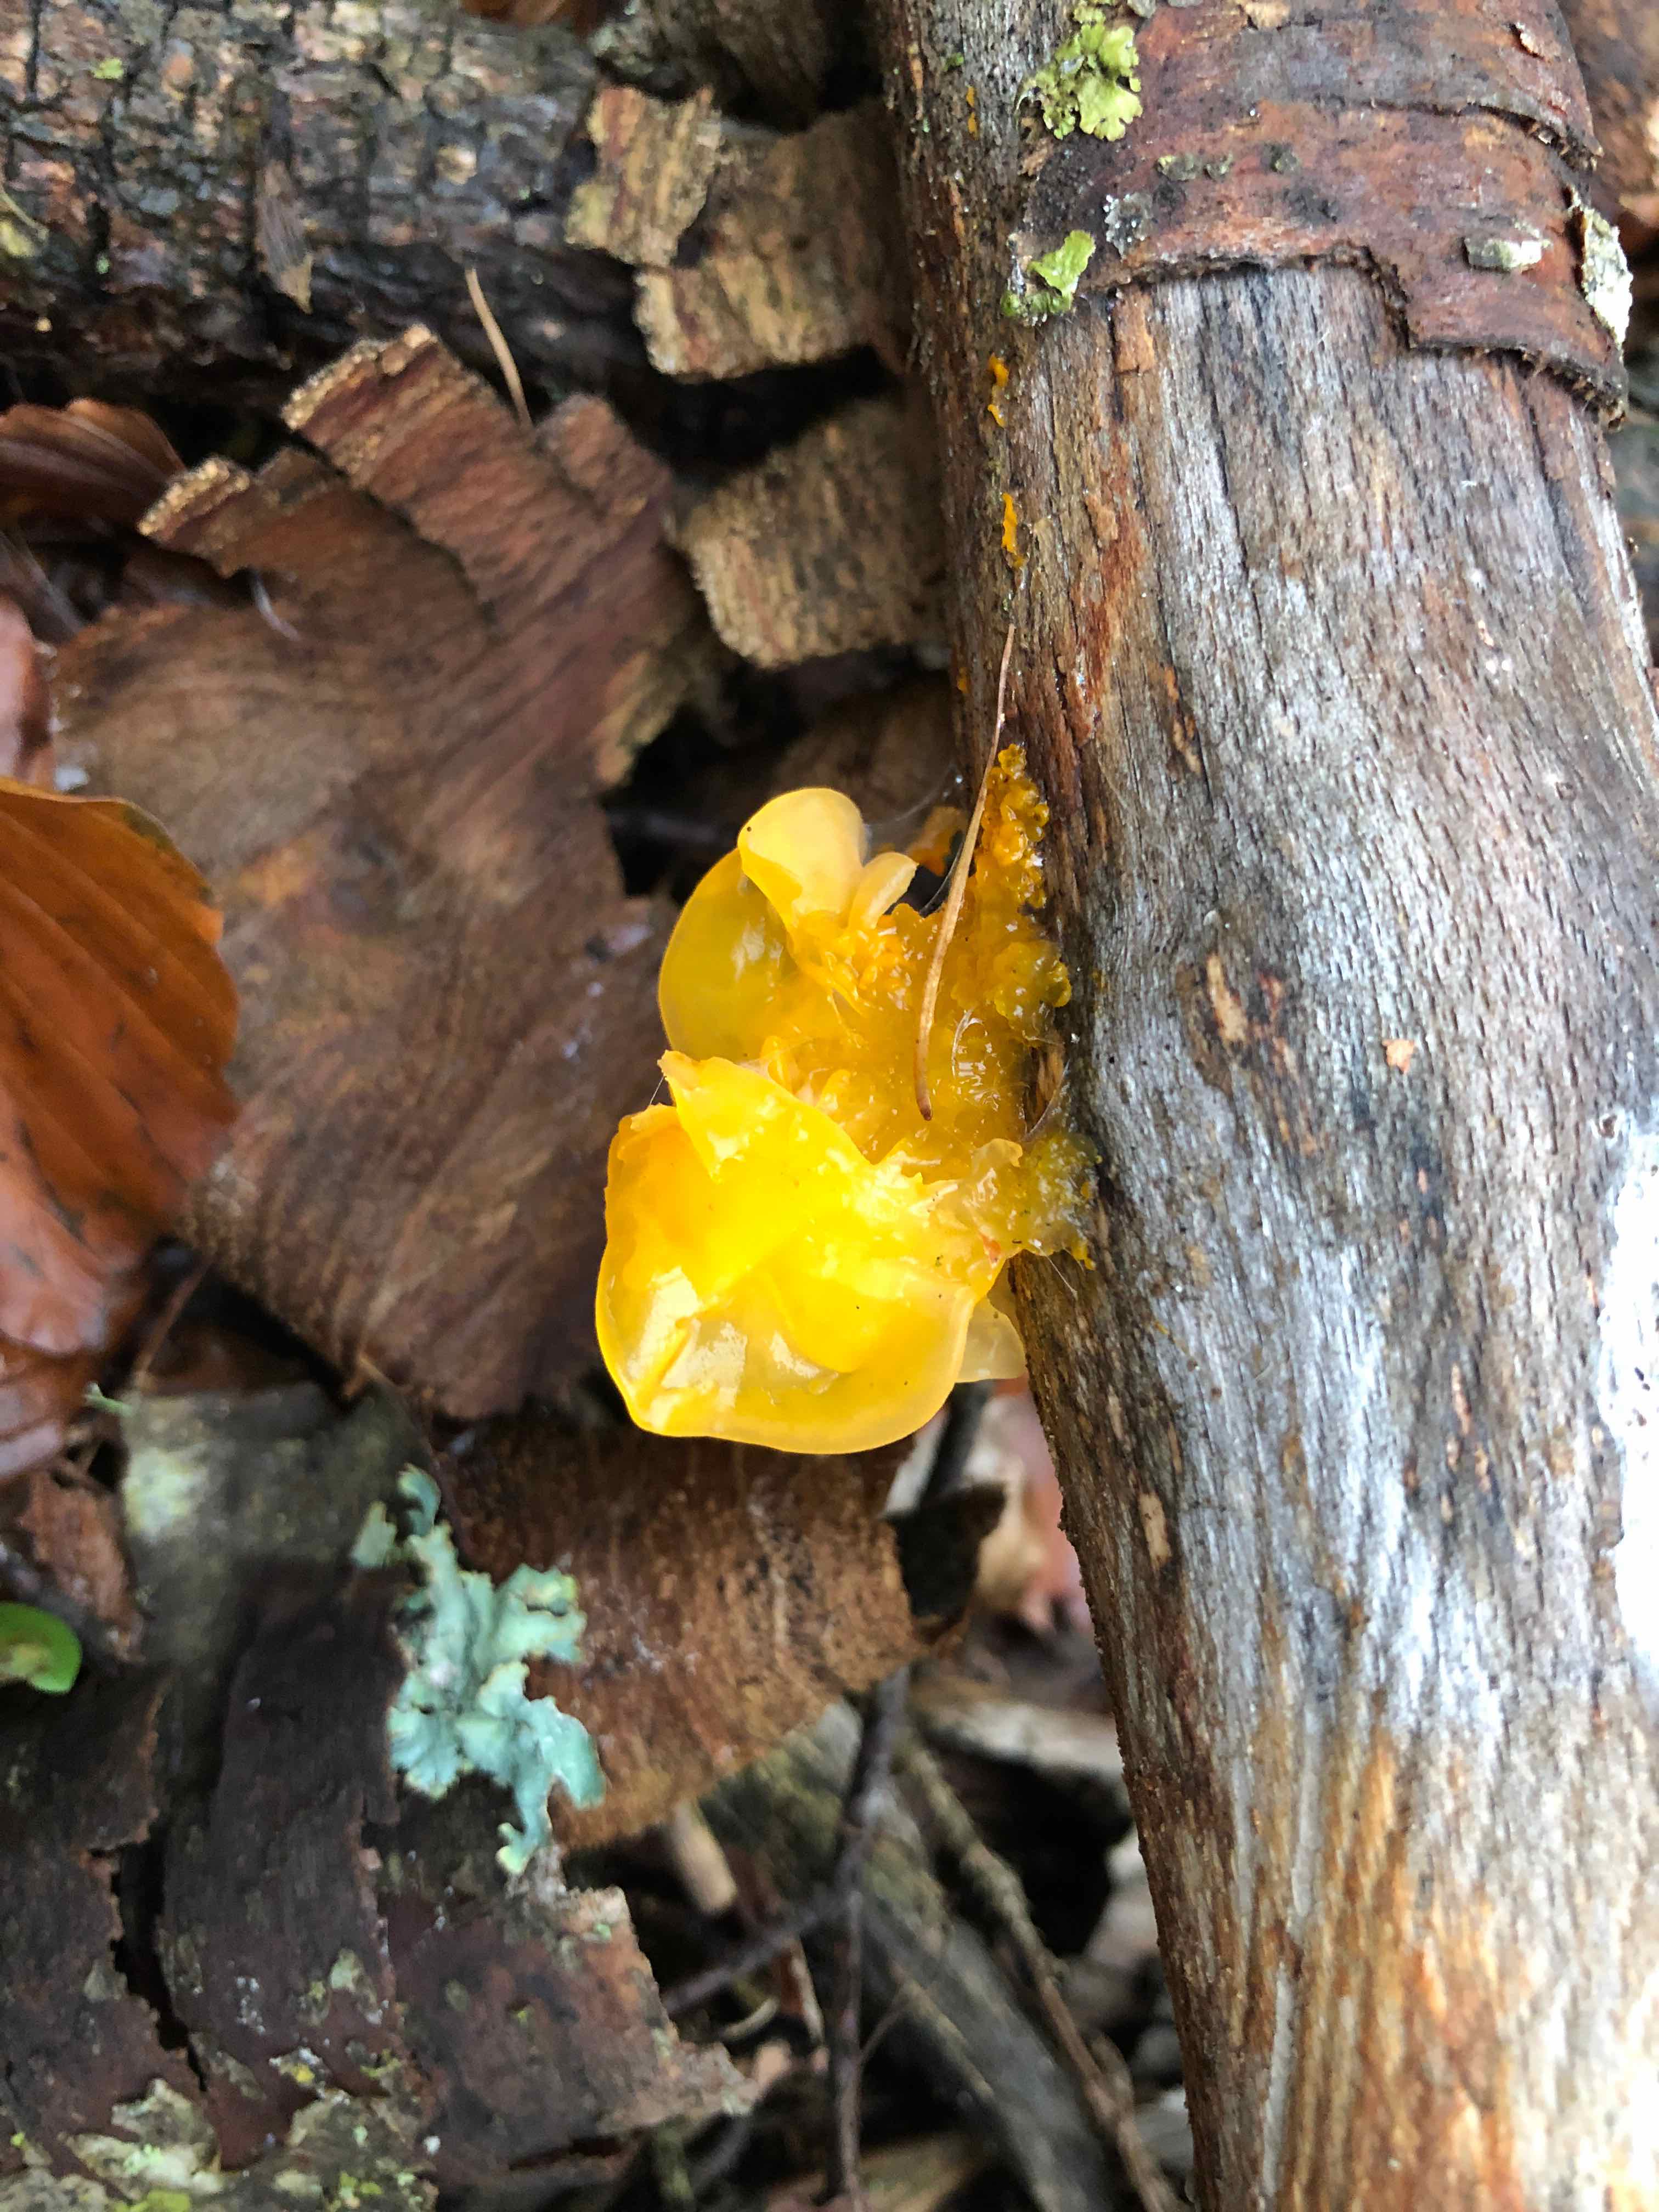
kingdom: Fungi
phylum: Basidiomycota
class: Tremellomycetes
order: Tremellales
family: Tremellaceae
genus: Tremella
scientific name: Tremella mesenterica
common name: gul bævresvamp
